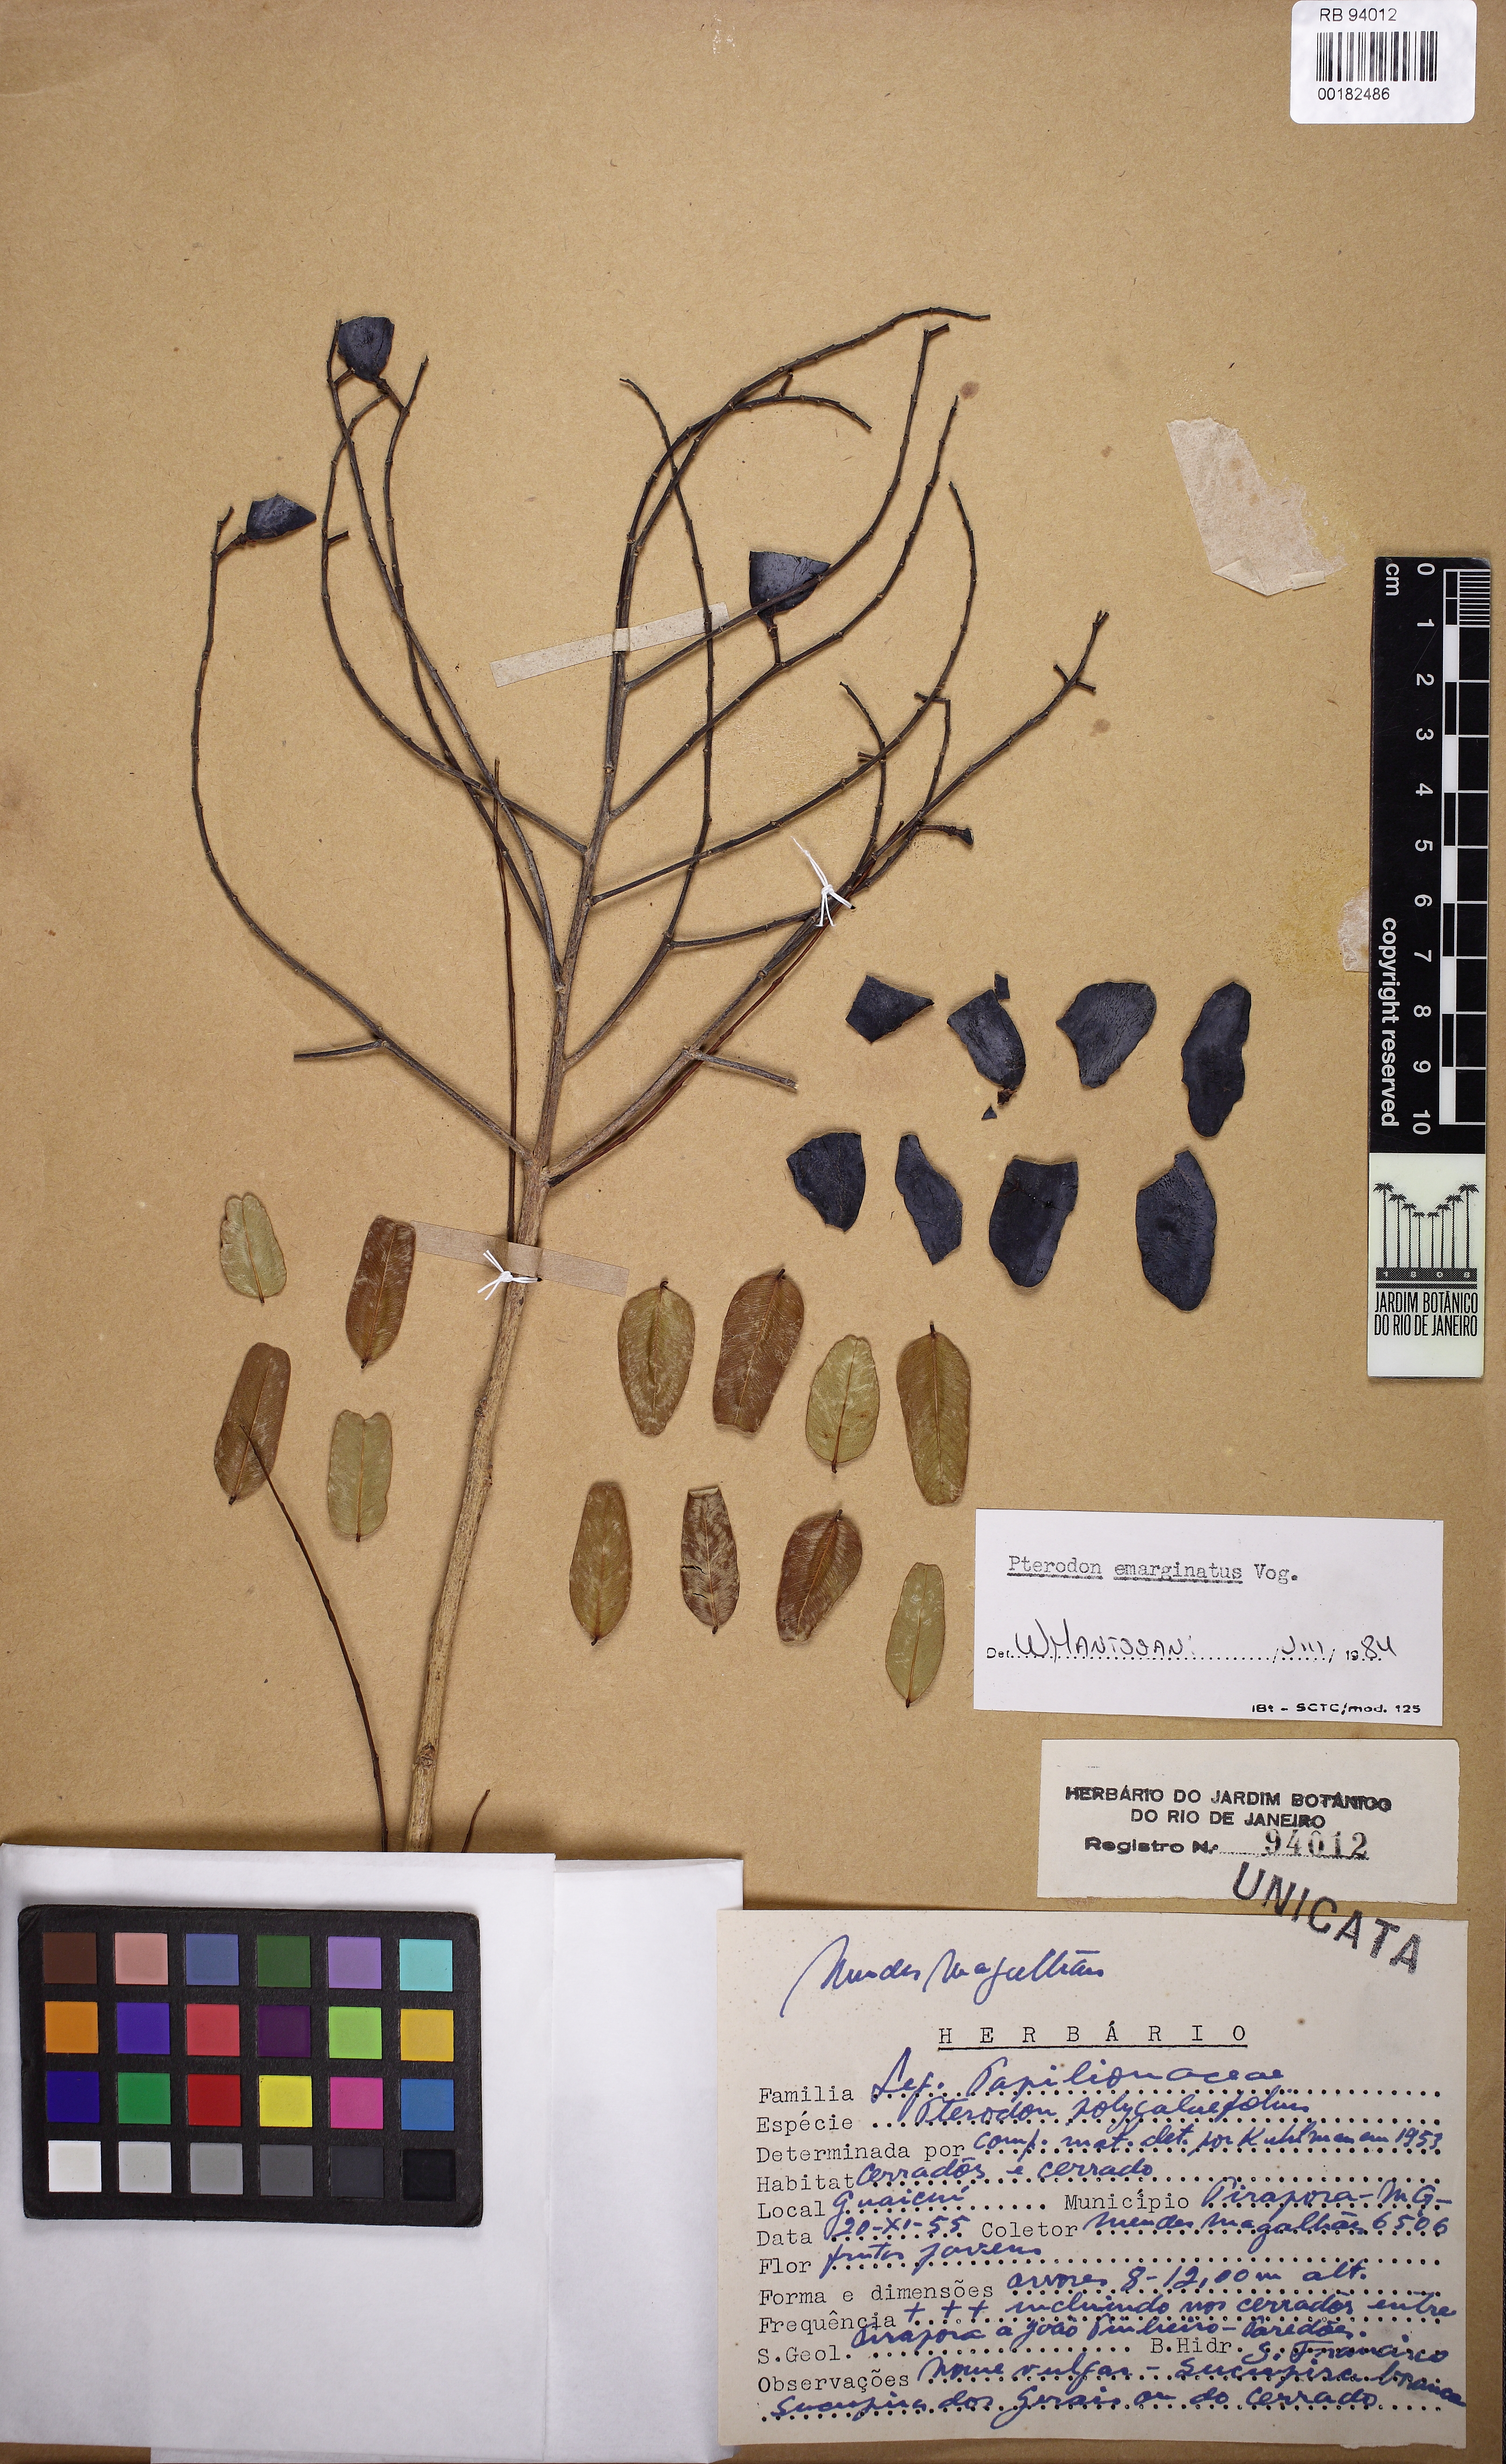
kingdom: Plantae
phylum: Tracheophyta
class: Magnoliopsida
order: Fabales
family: Fabaceae
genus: Pterodon
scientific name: Pterodon emarginatus
